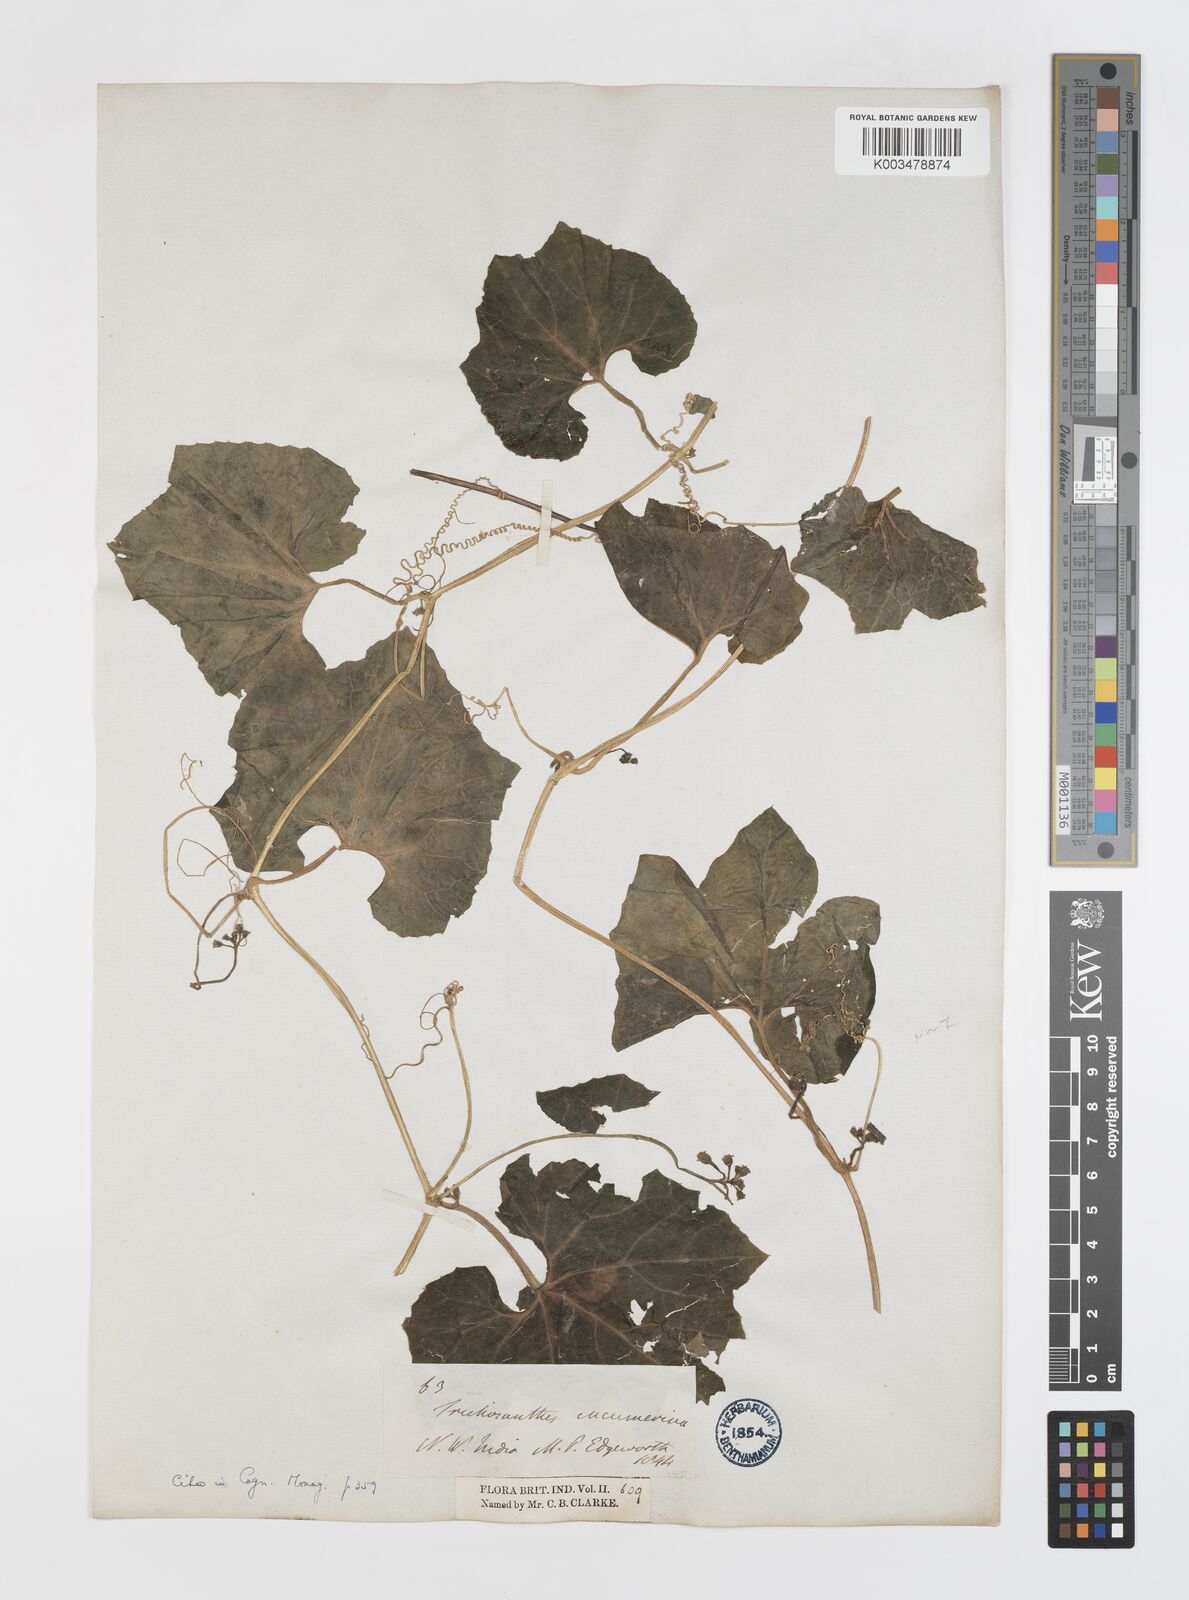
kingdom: Plantae
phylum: Tracheophyta
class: Magnoliopsida
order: Cucurbitales
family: Cucurbitaceae
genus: Trichosanthes
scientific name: Trichosanthes cucumerina
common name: Snakegourd
